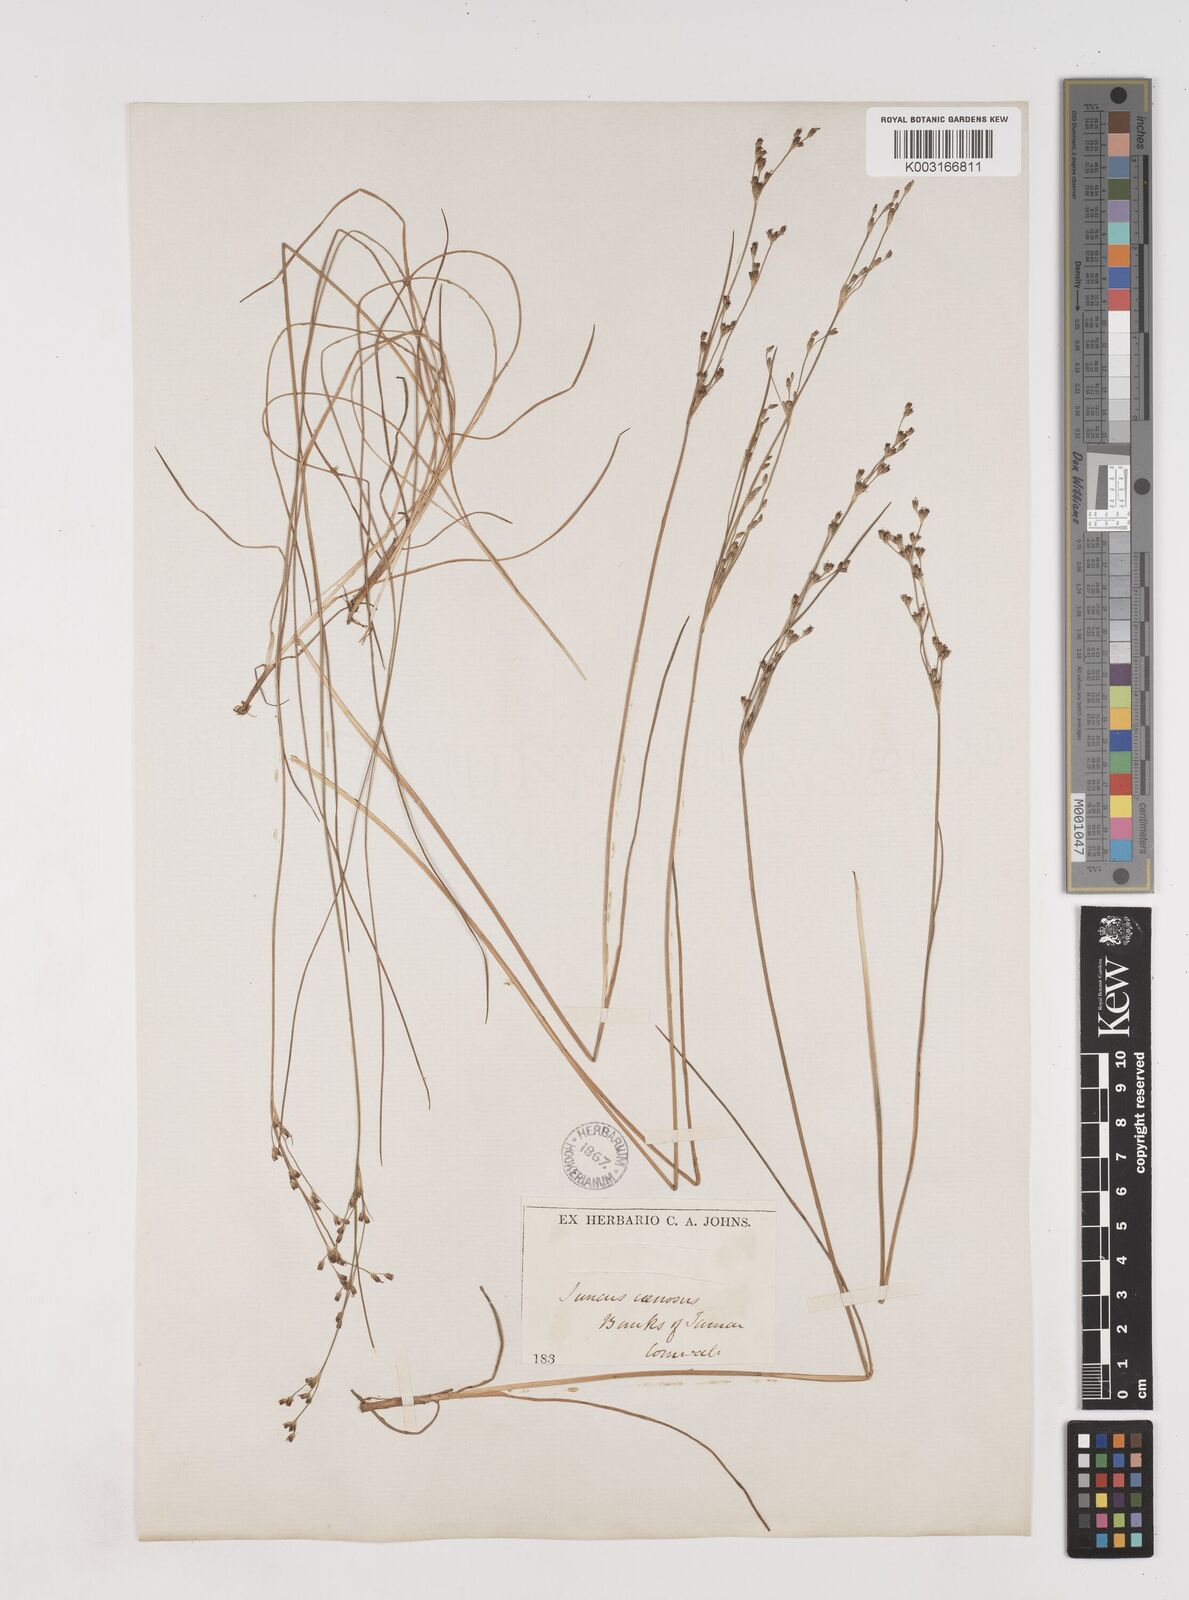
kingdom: Plantae
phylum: Tracheophyta
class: Liliopsida
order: Poales
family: Juncaceae
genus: Juncus
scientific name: Juncus gerardi
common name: Saltmarsh rush
